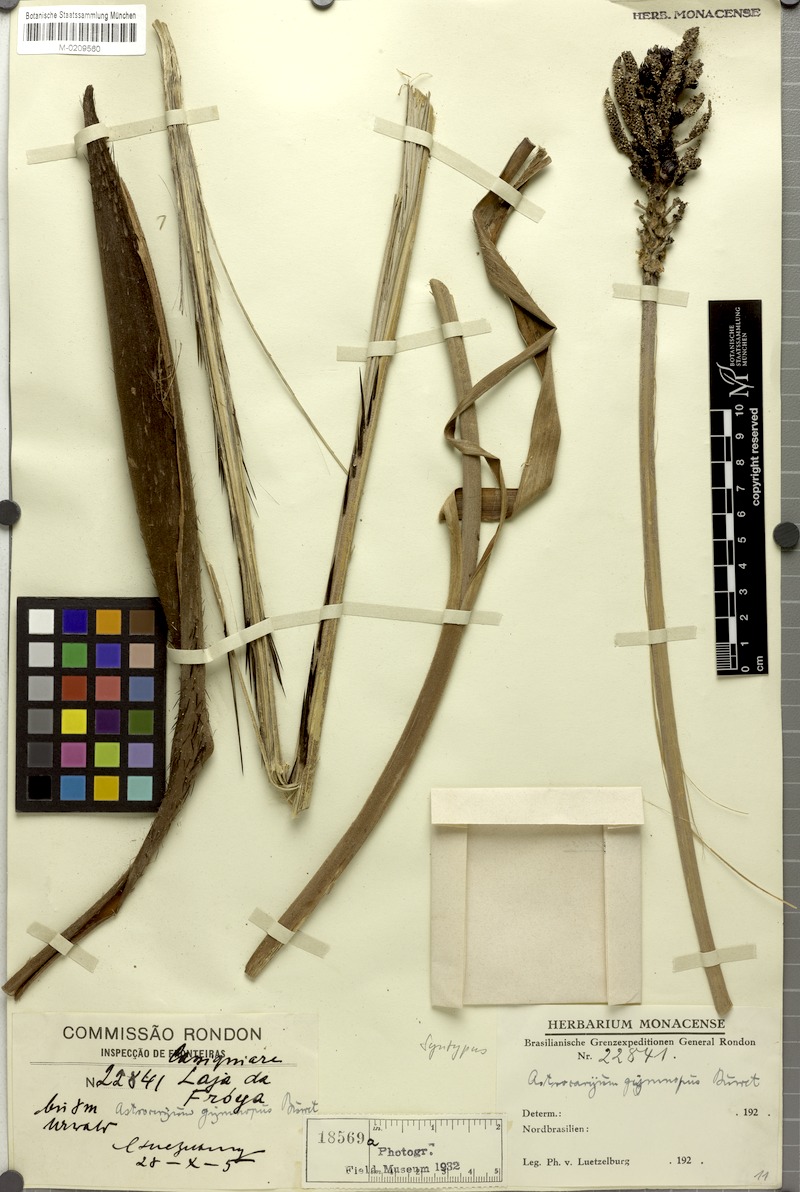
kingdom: Plantae
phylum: Tracheophyta
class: Liliopsida
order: Arecales
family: Arecaceae
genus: Astrocaryum
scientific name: Astrocaryum aculeatum
